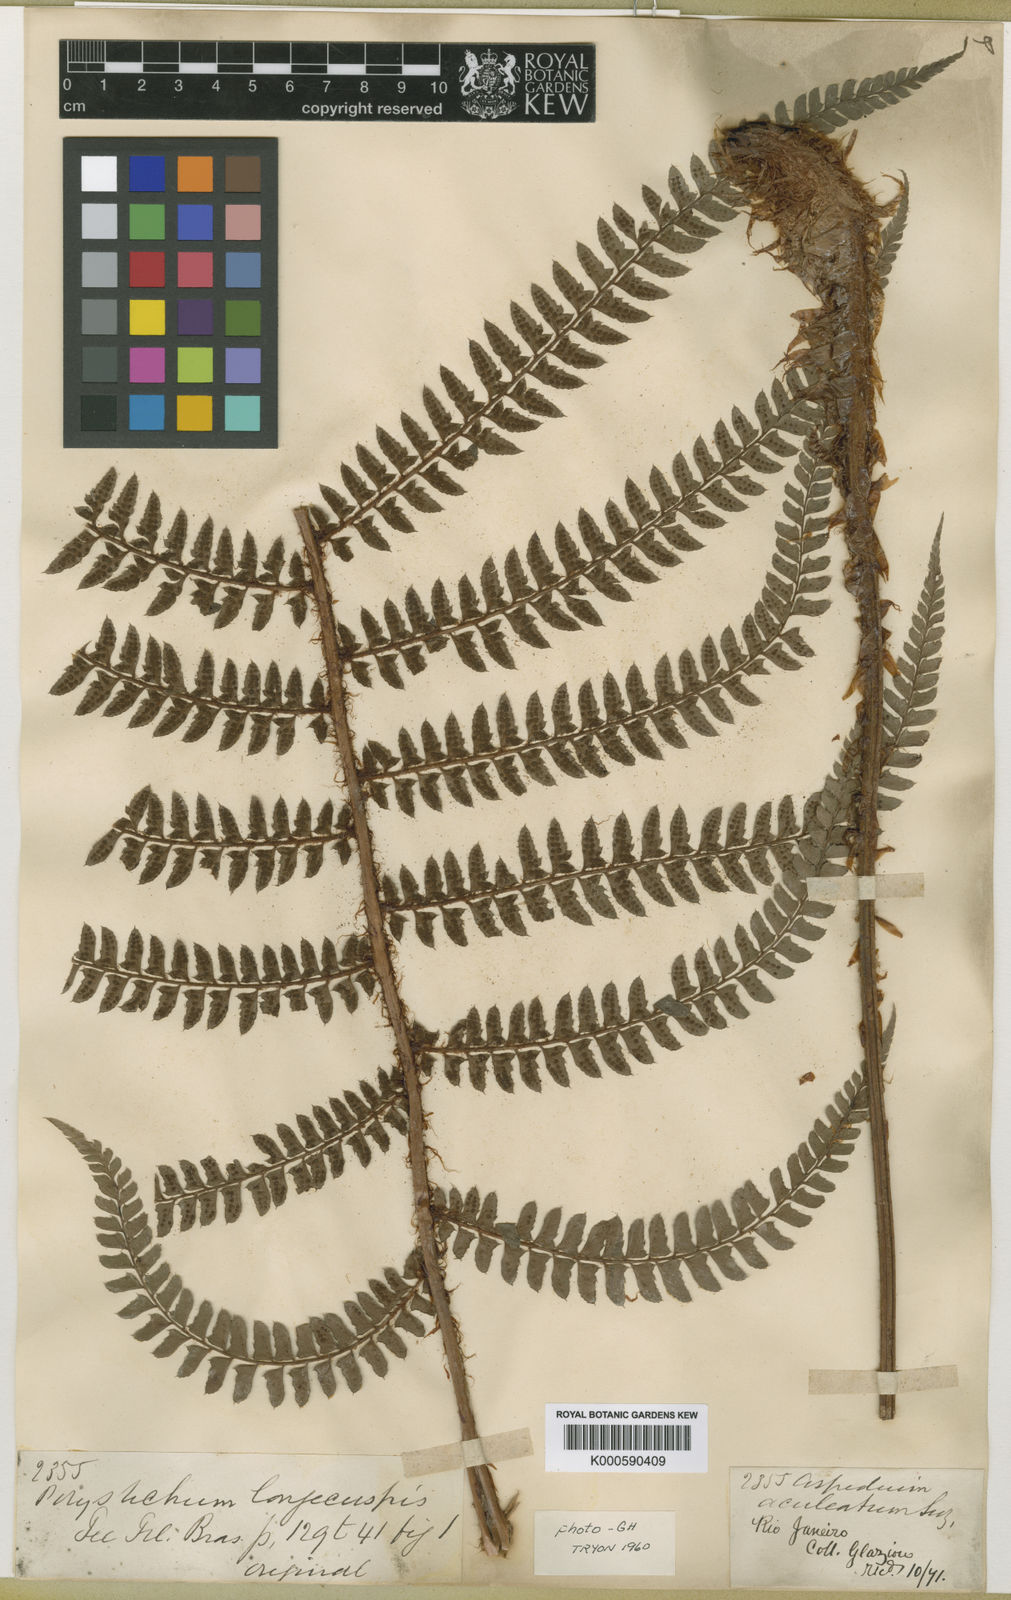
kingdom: Plantae
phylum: Tracheophyta
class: Polypodiopsida
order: Polypodiales
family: Dryopteridaceae
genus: Polystichum
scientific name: Polystichum aculeatum
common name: Hard shield-fern
